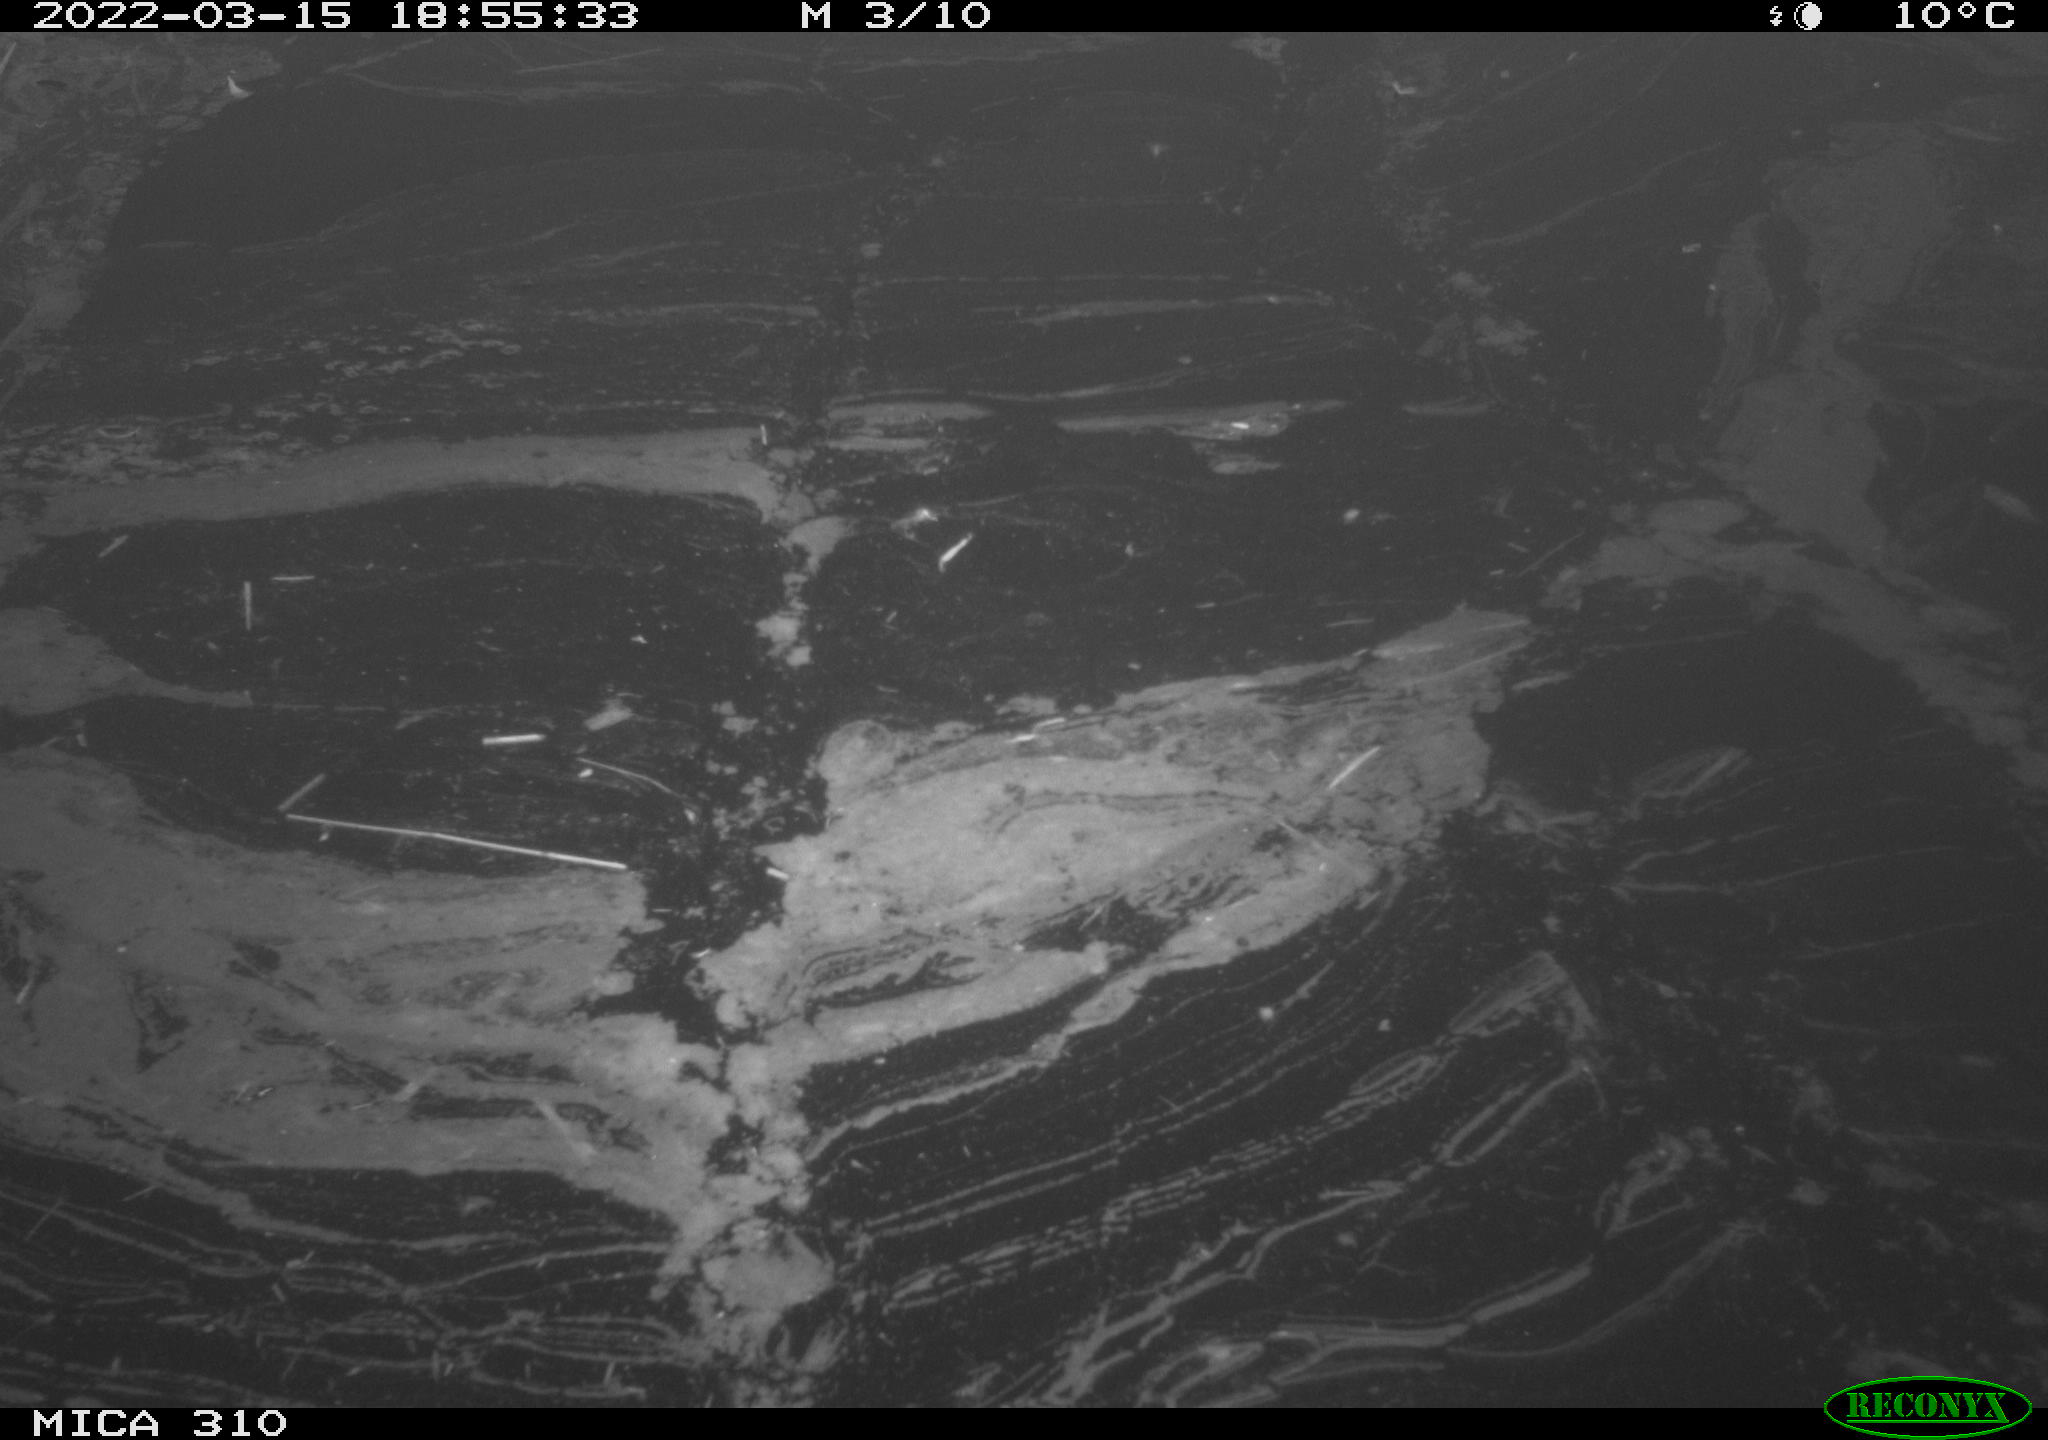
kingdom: Animalia
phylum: Chordata
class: Aves
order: Anseriformes
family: Anatidae
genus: Anas
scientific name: Anas platyrhynchos
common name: Mallard
